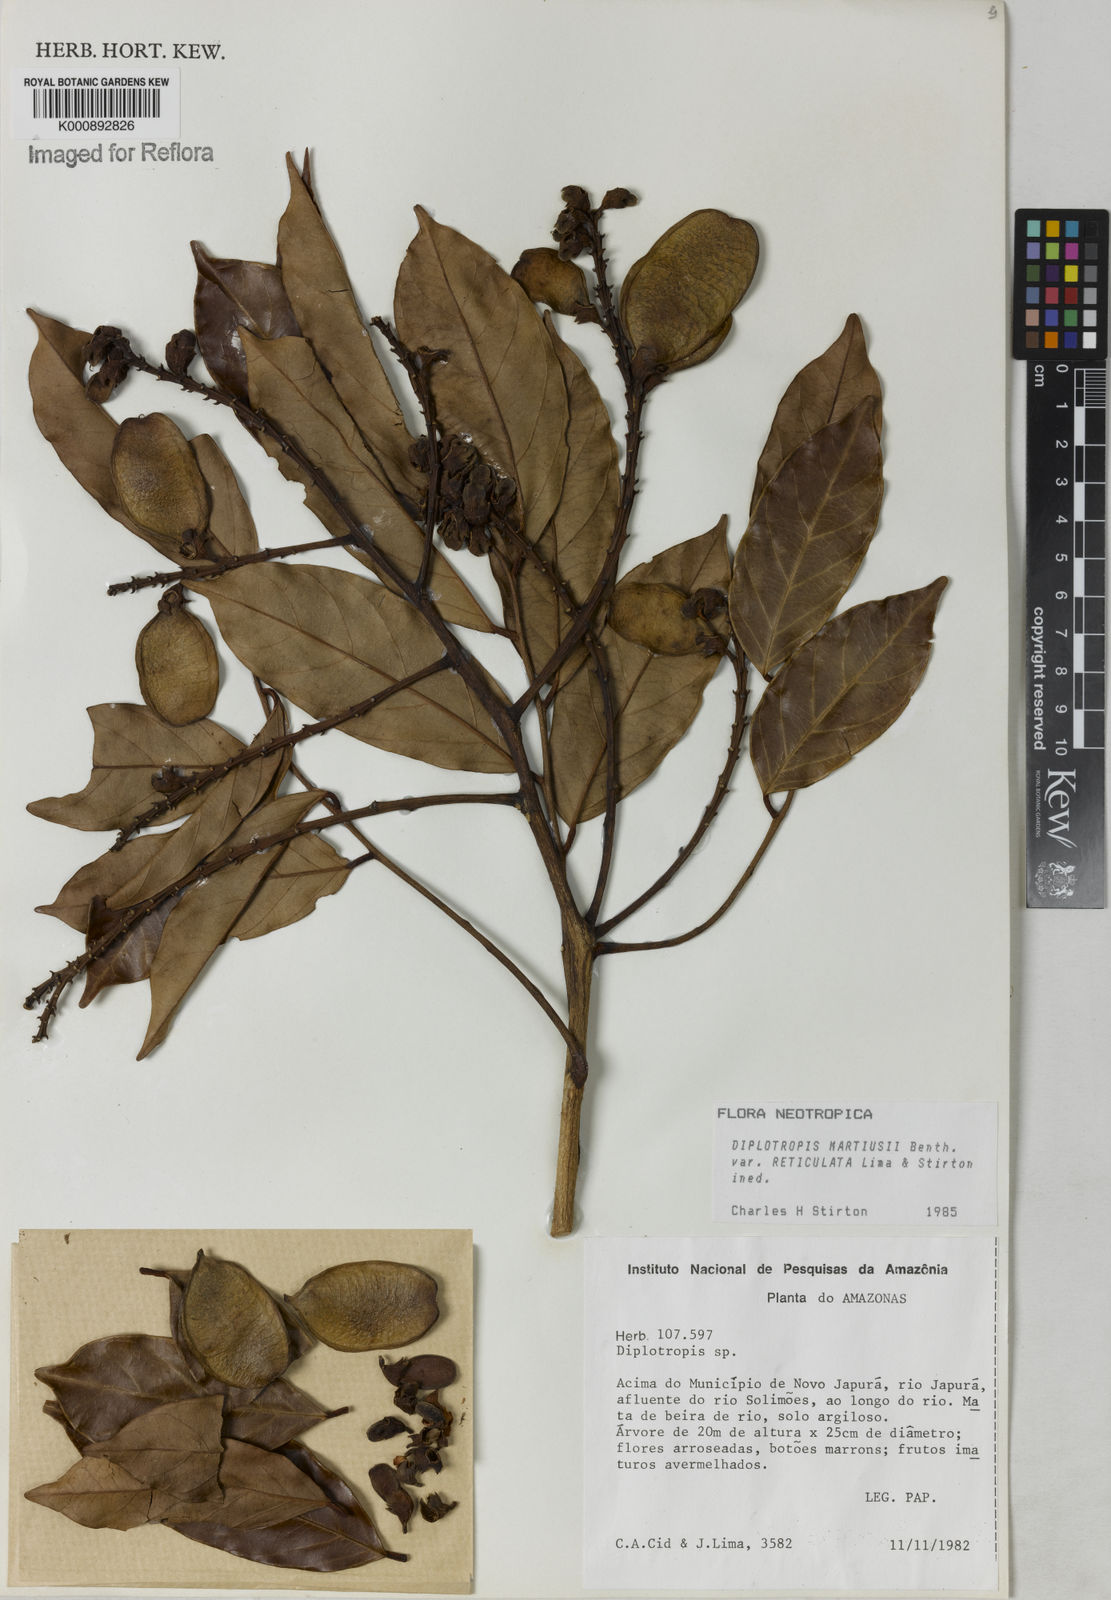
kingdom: Plantae
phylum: Tracheophyta
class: Magnoliopsida
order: Fabales
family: Fabaceae
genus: Diplotropis
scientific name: Diplotropis
